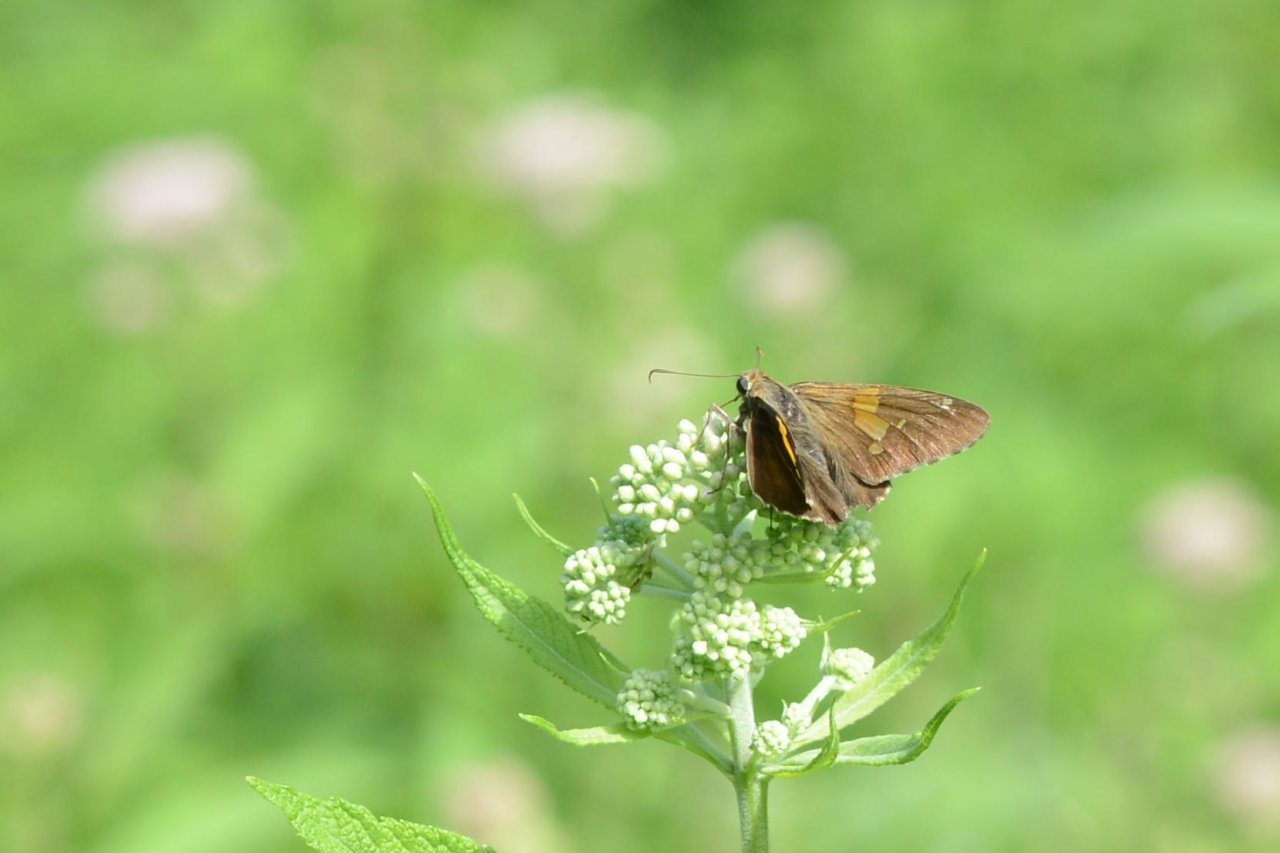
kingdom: Animalia
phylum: Arthropoda
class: Insecta
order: Lepidoptera
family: Hesperiidae
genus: Epargyreus
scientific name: Epargyreus clarus
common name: Silver-spotted Skipper
